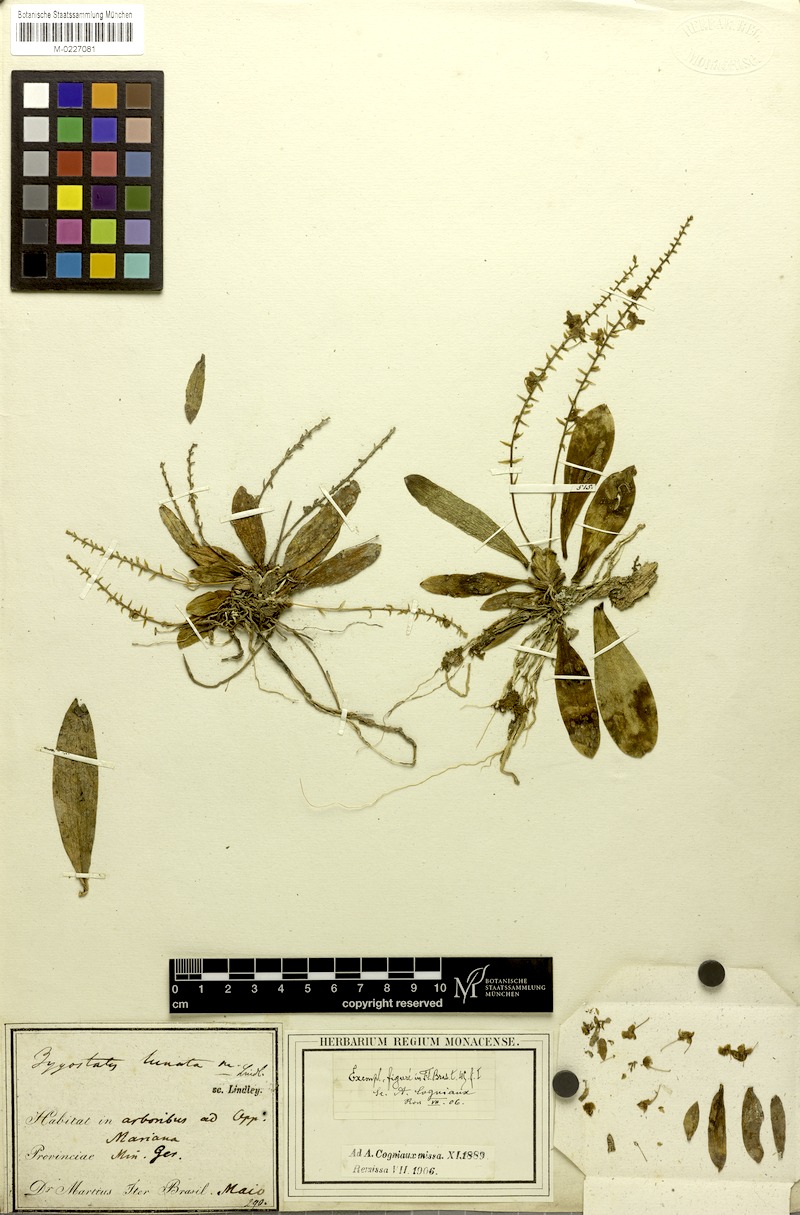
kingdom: Plantae
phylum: Tracheophyta
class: Liliopsida
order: Asparagales
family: Orchidaceae
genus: Zygostates
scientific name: Zygostates lunata
